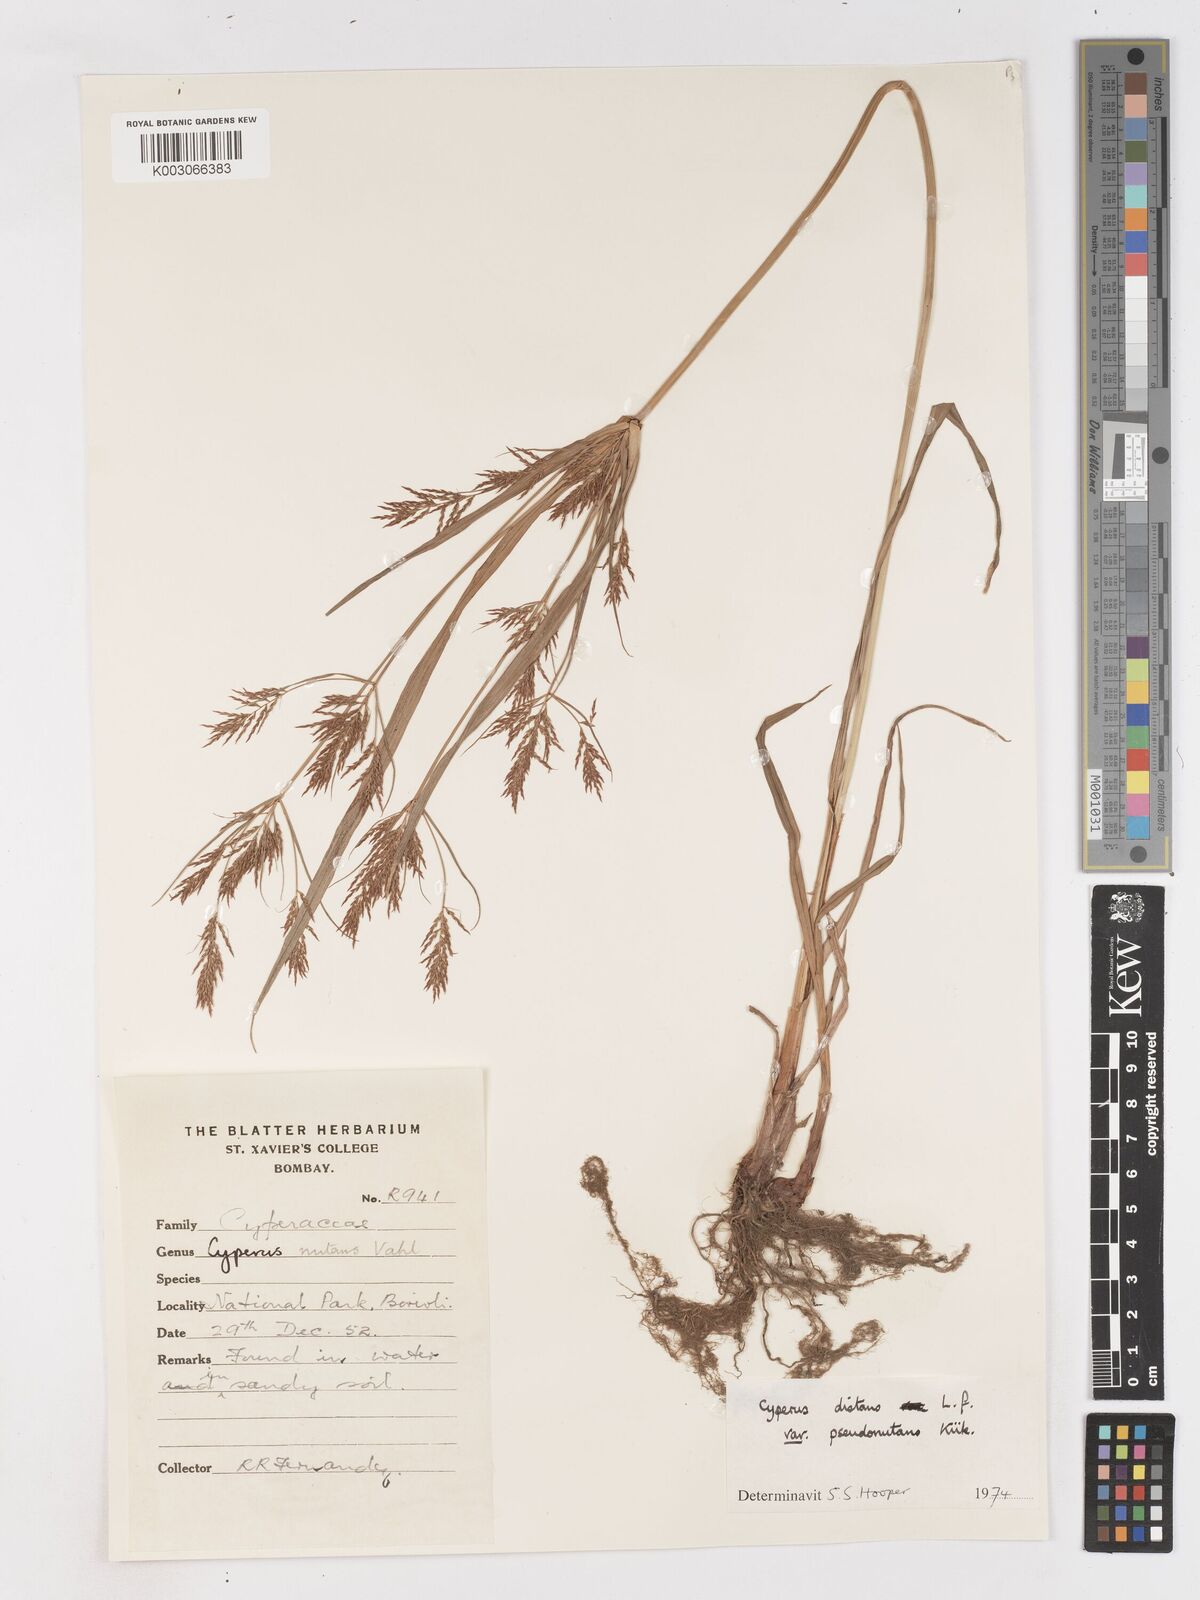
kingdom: Plantae
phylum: Tracheophyta
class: Liliopsida
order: Poales
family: Cyperaceae
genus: Cyperus
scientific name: Cyperus distans
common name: Slender cyperus
